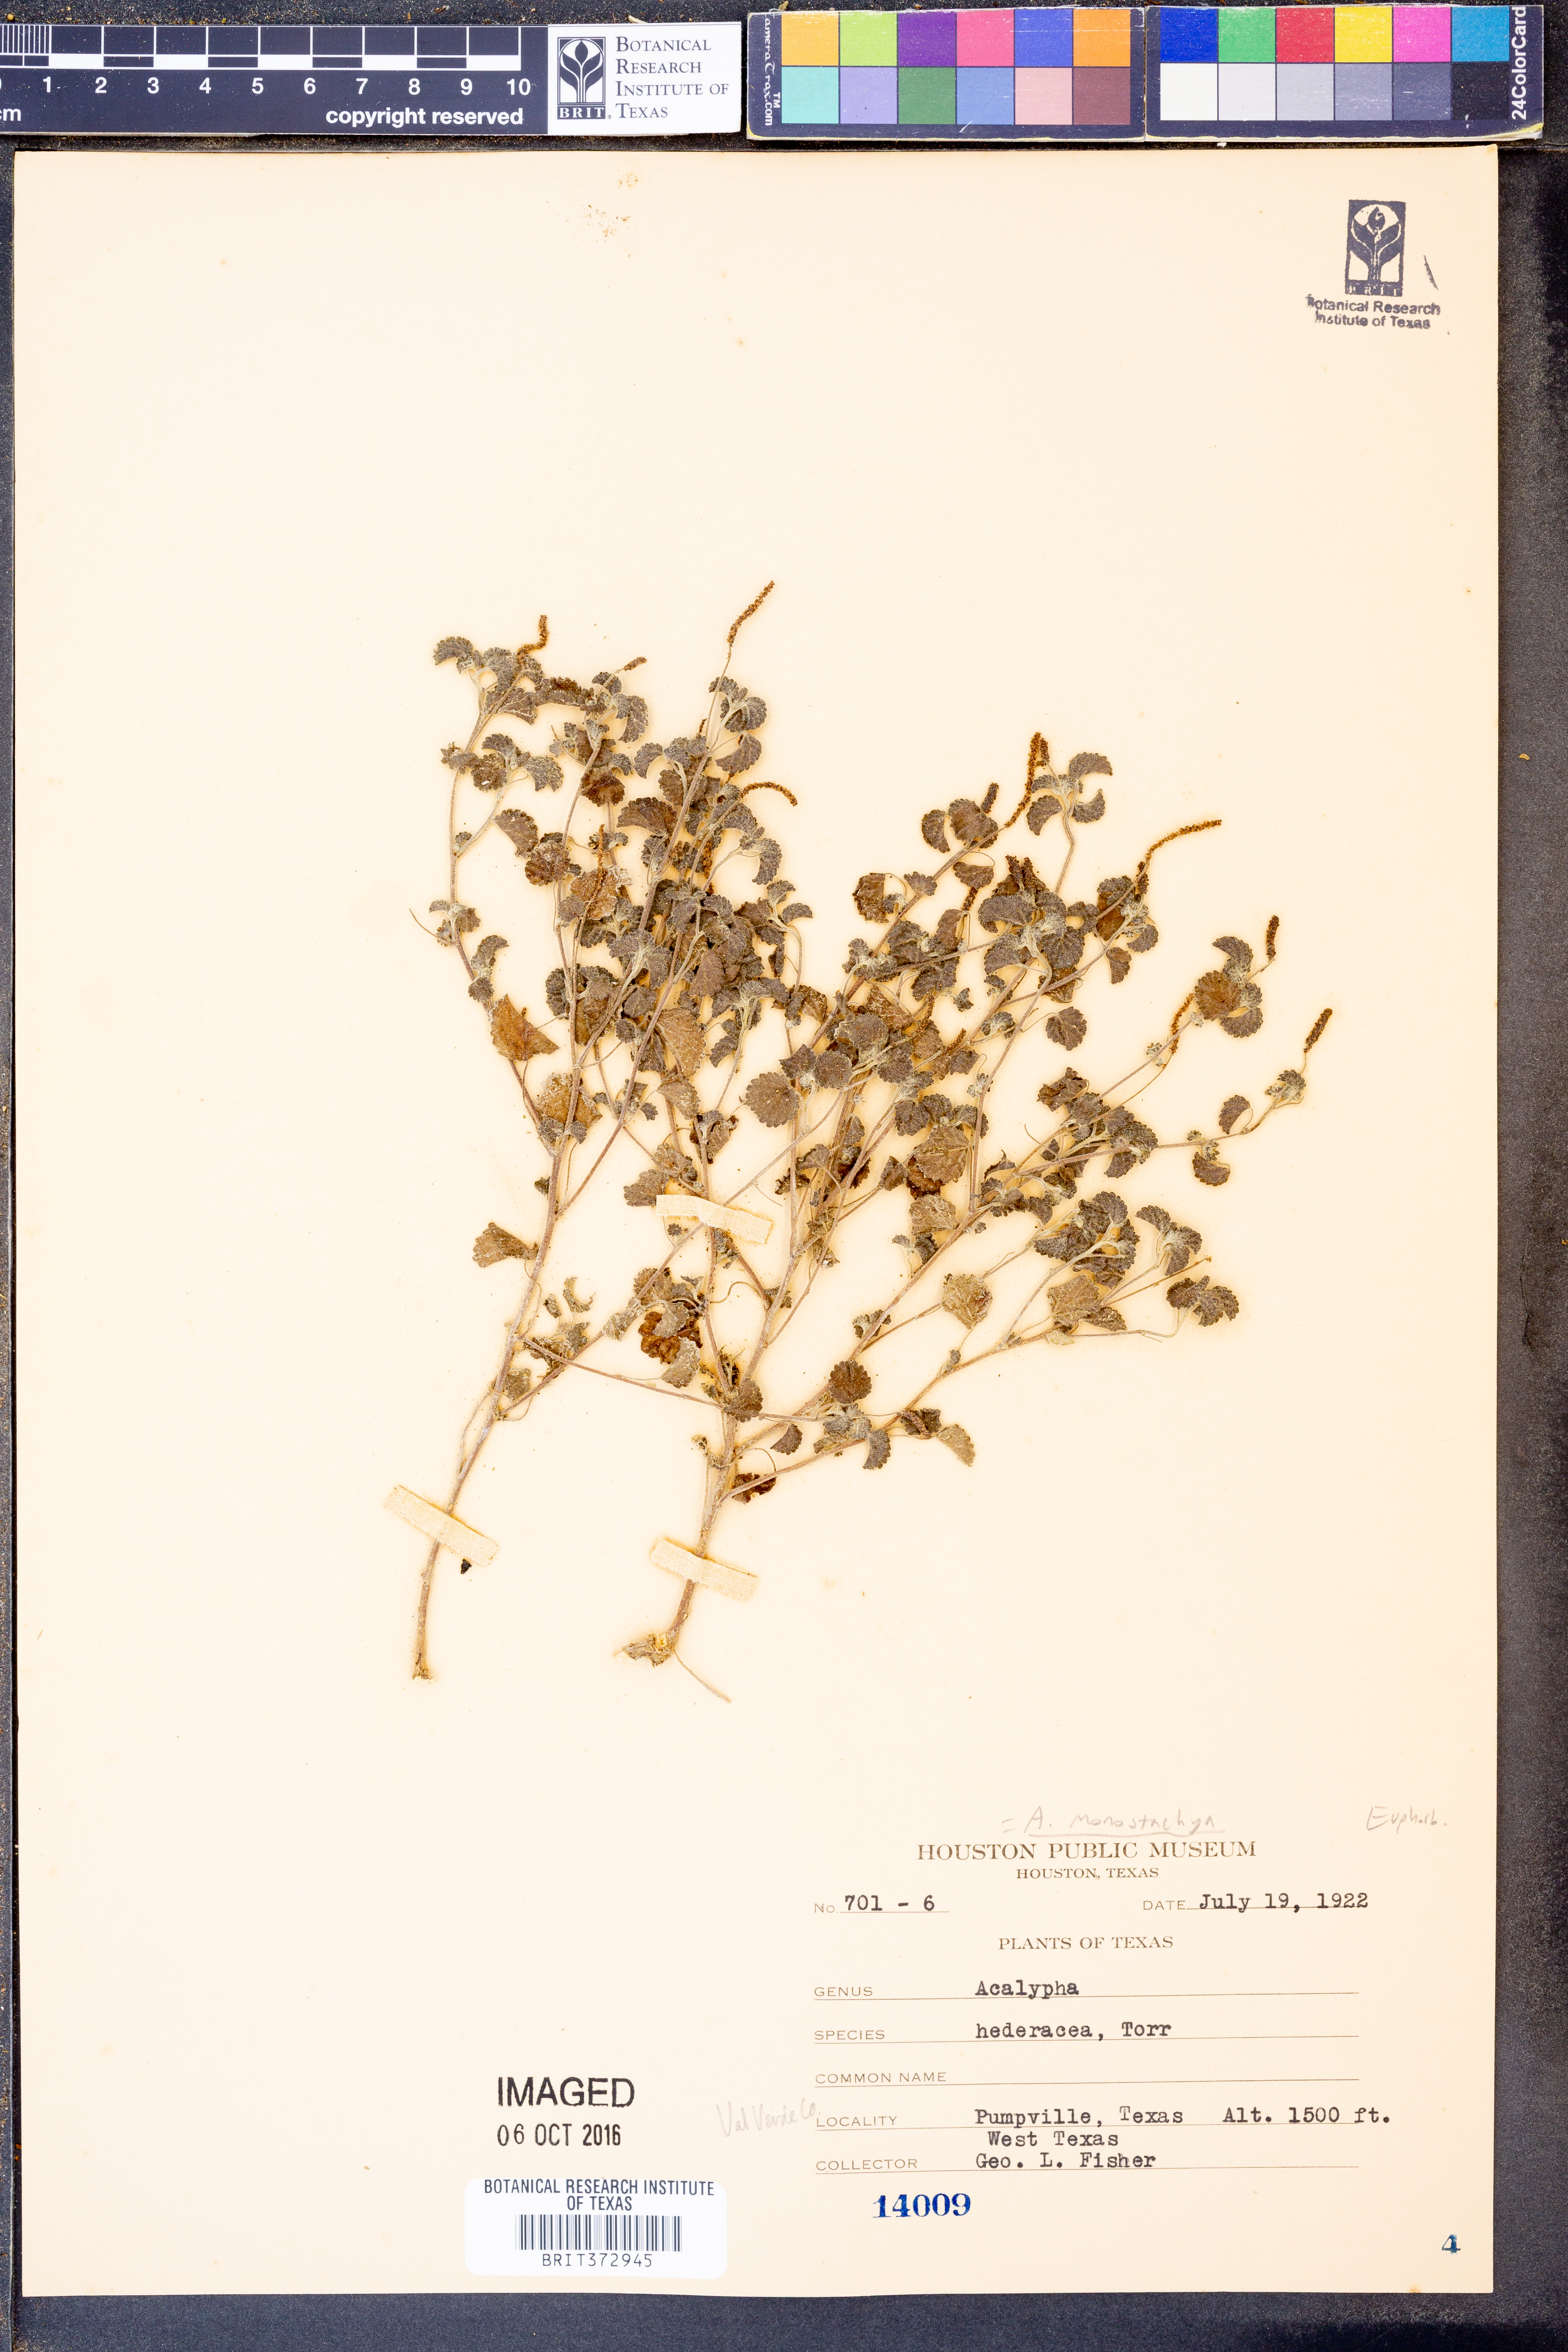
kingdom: Plantae
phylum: Tracheophyta
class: Magnoliopsida
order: Malpighiales
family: Euphorbiaceae
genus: Acalypha
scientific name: Acalypha monostachya
